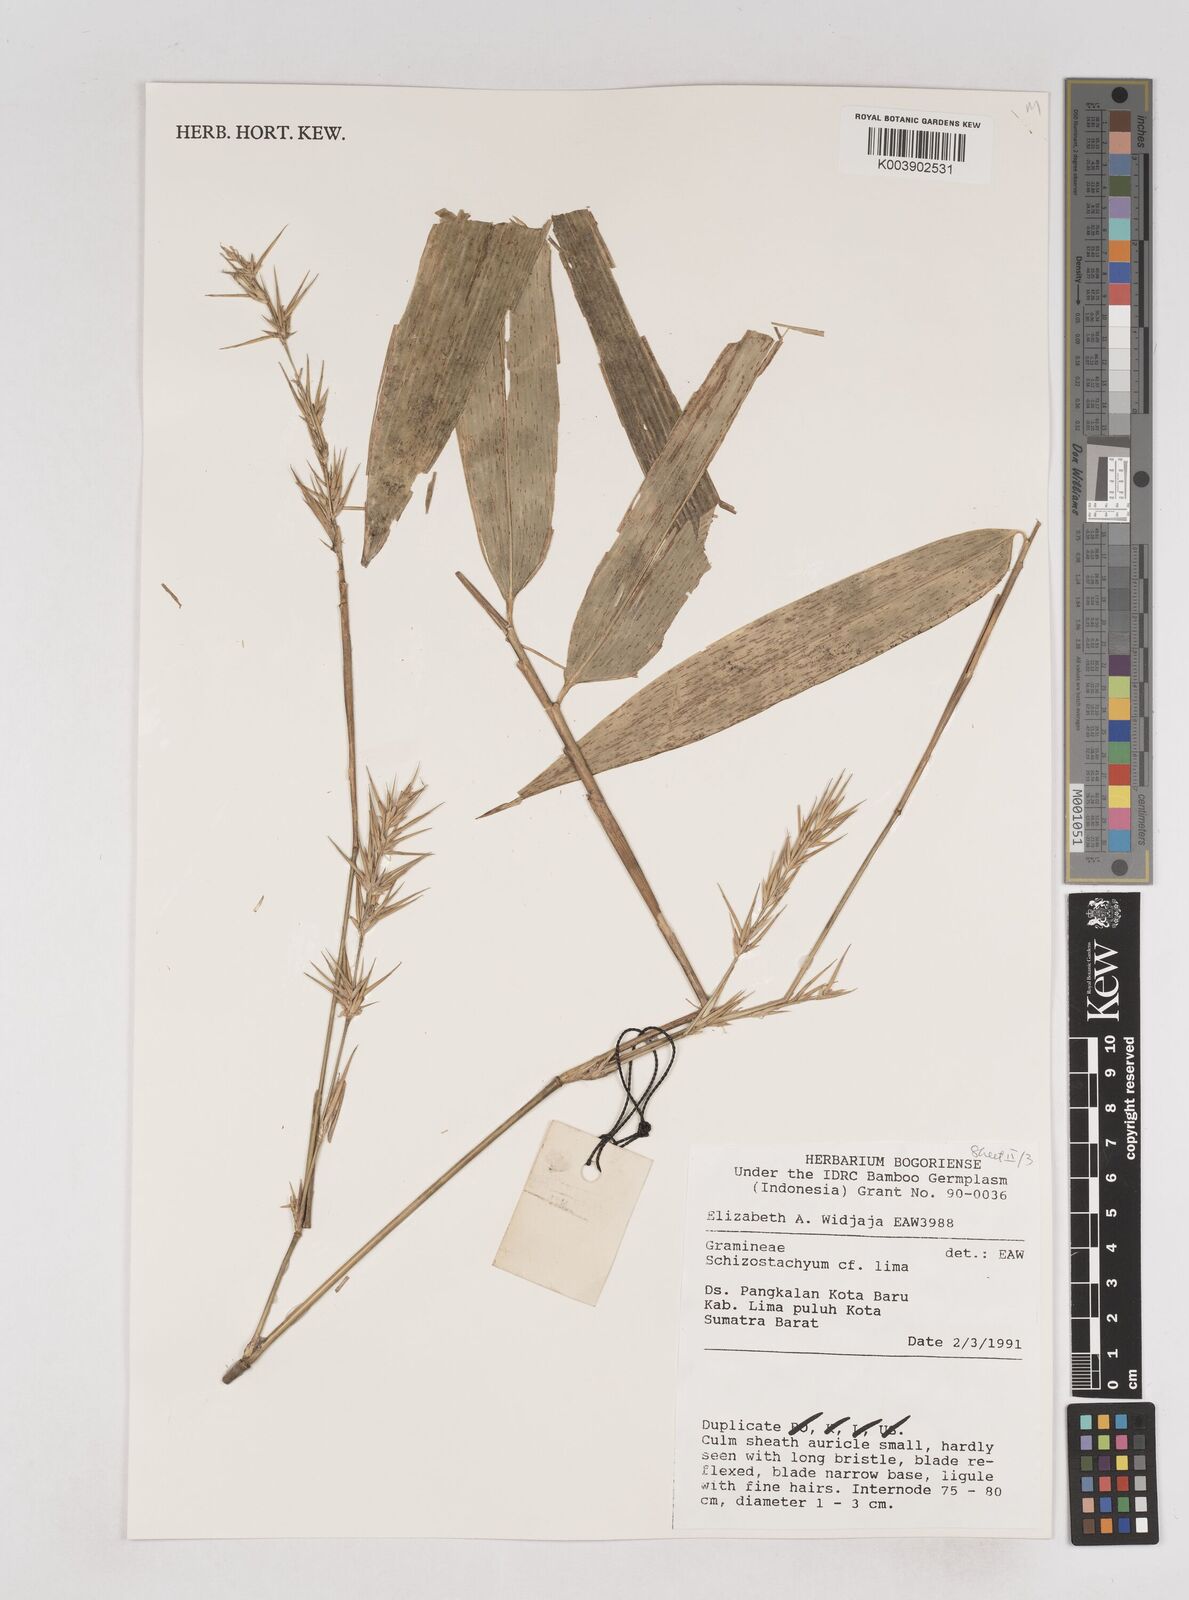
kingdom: Plantae
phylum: Tracheophyta
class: Liliopsida
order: Poales
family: Poaceae
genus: Schizostachyum
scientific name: Schizostachyum lima
